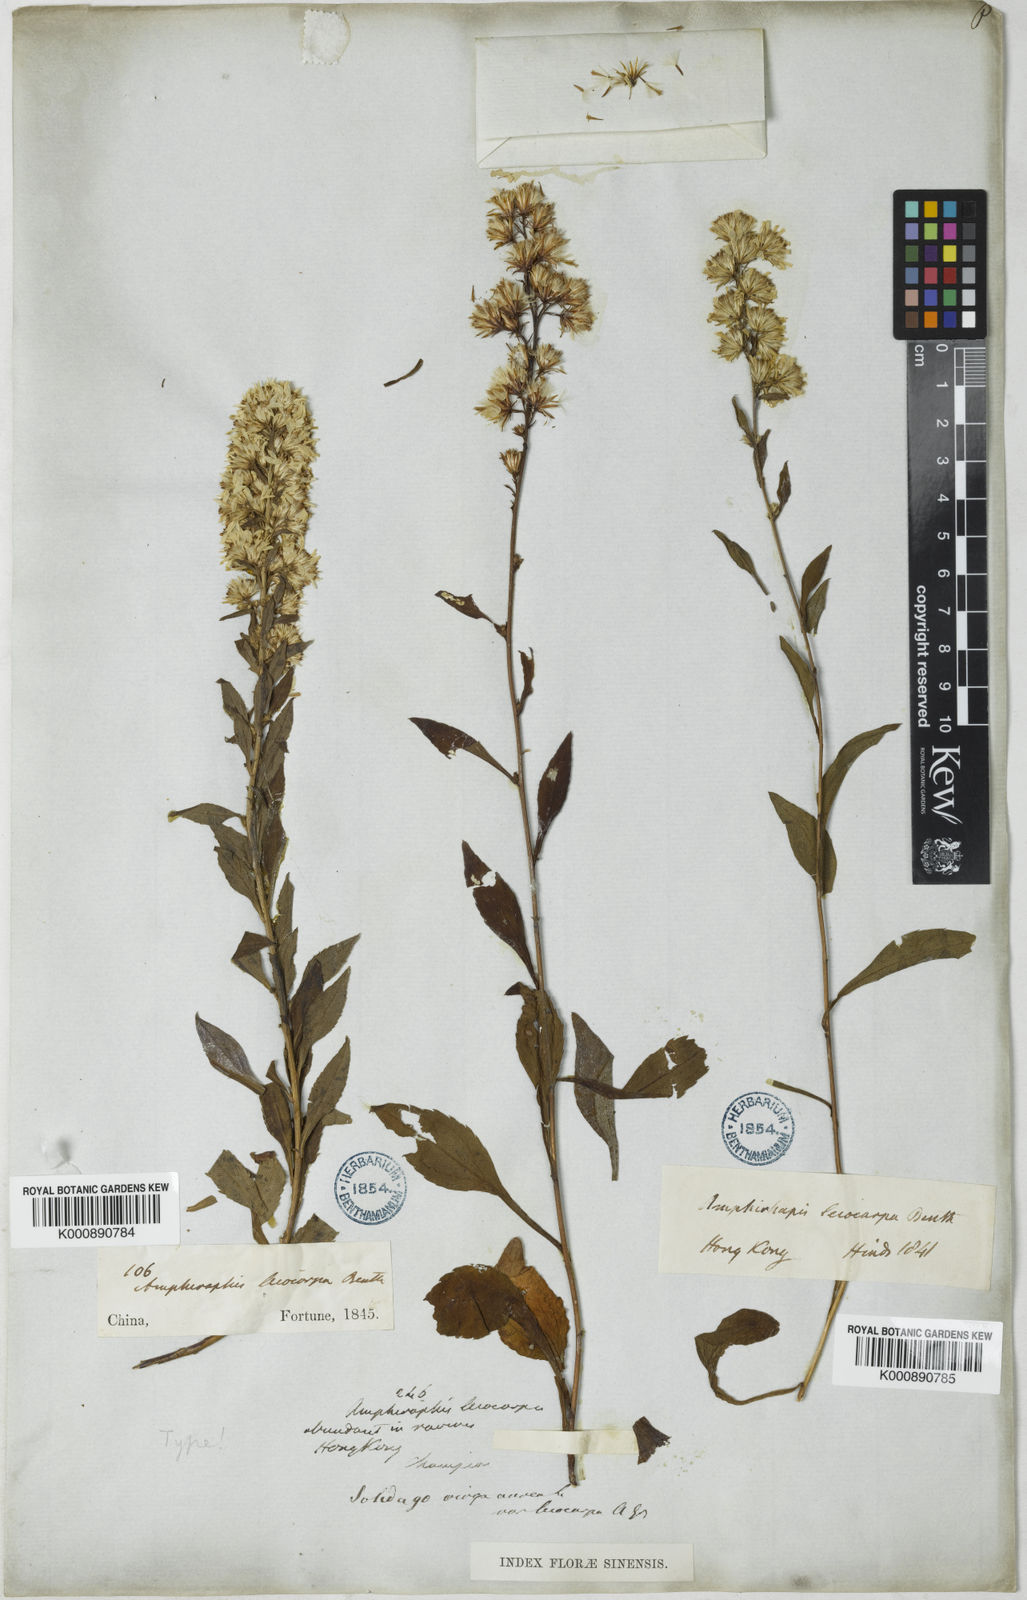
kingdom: Plantae
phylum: Tracheophyta
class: Magnoliopsida
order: Asterales
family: Asteraceae
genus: Solidago
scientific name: Solidago decurrens
